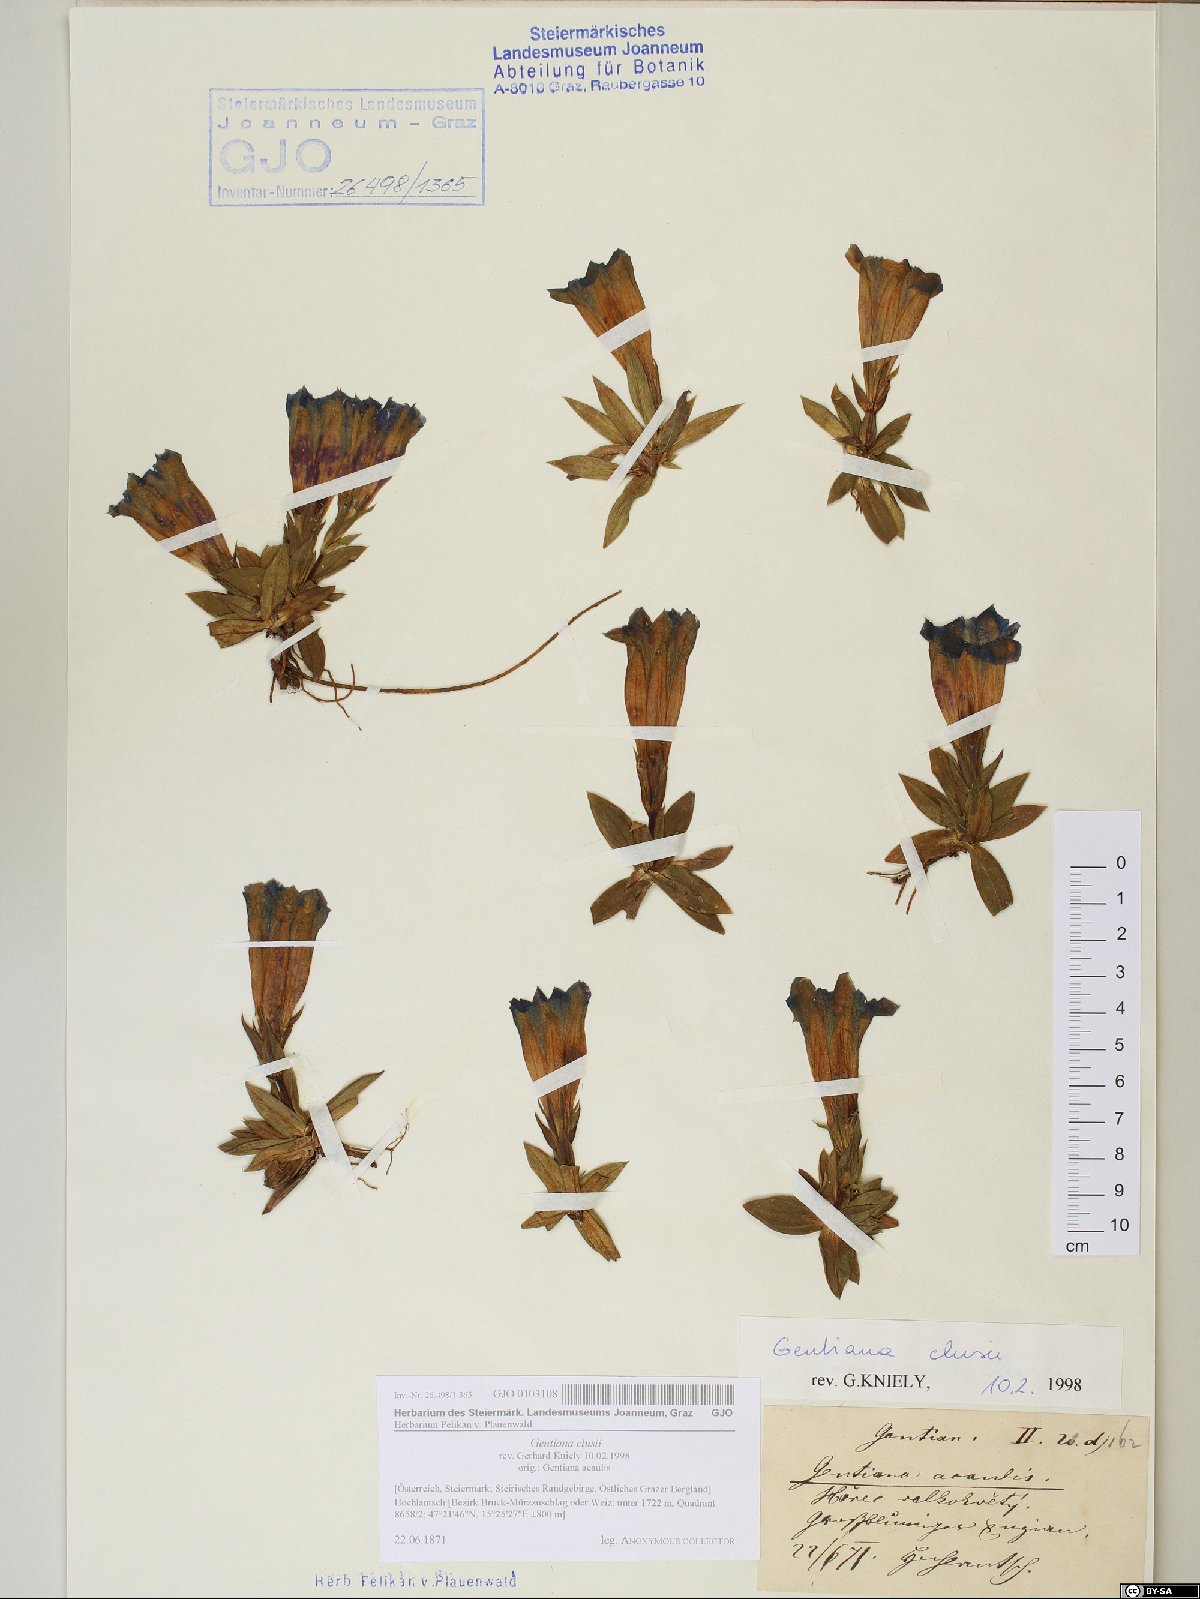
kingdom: Plantae
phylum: Tracheophyta
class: Magnoliopsida
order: Gentianales
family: Gentianaceae
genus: Gentiana
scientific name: Gentiana clusii
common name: Trumpet gentian
